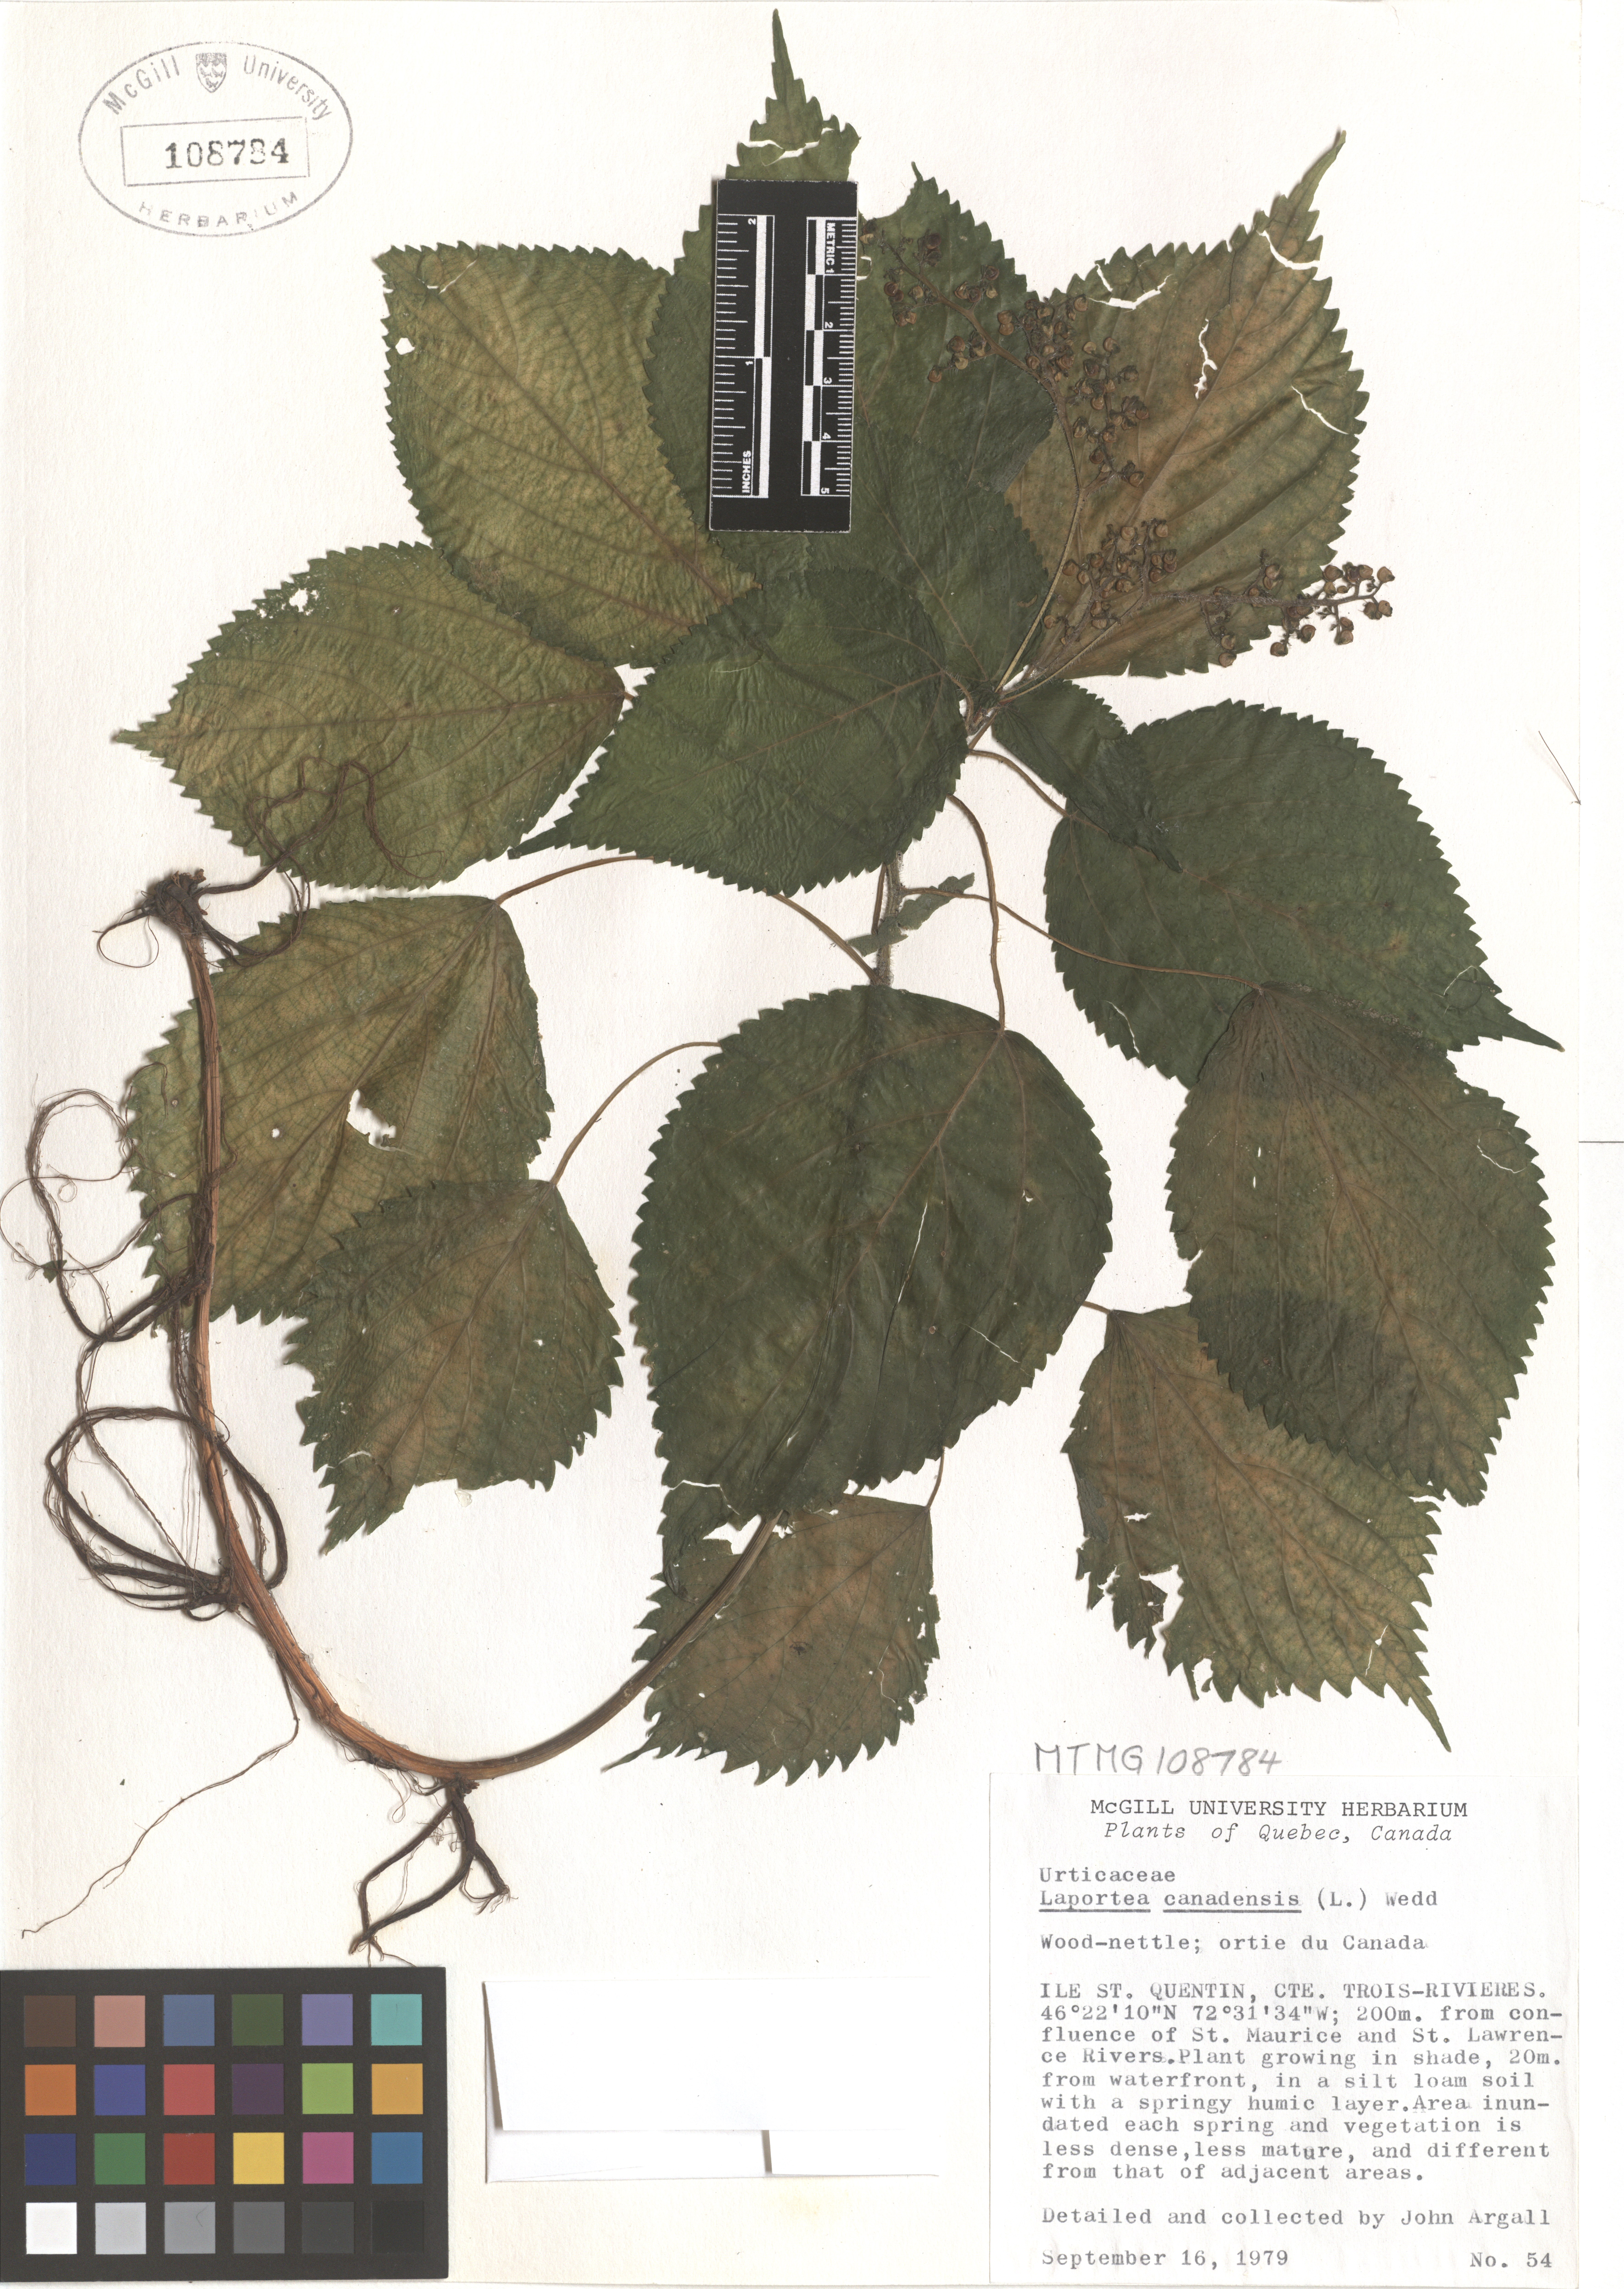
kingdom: Plantae
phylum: Tracheophyta
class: Magnoliopsida
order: Rosales
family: Urticaceae
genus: Laportea
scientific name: Laportea canadensis
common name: Canada nettle
